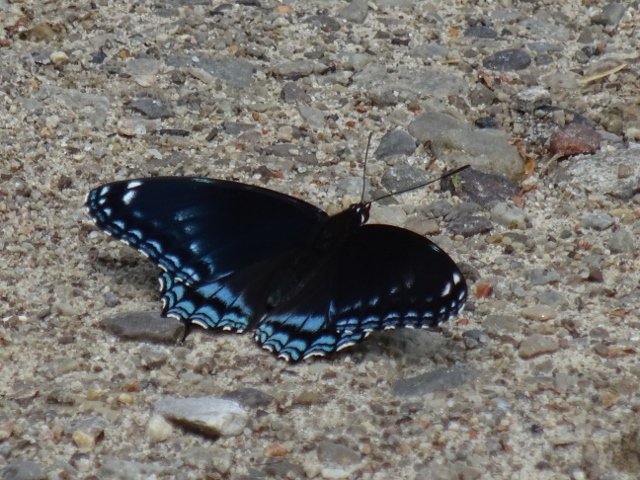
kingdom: Animalia
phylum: Arthropoda
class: Insecta
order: Lepidoptera
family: Nymphalidae
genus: Limenitis
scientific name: Limenitis astyanax
